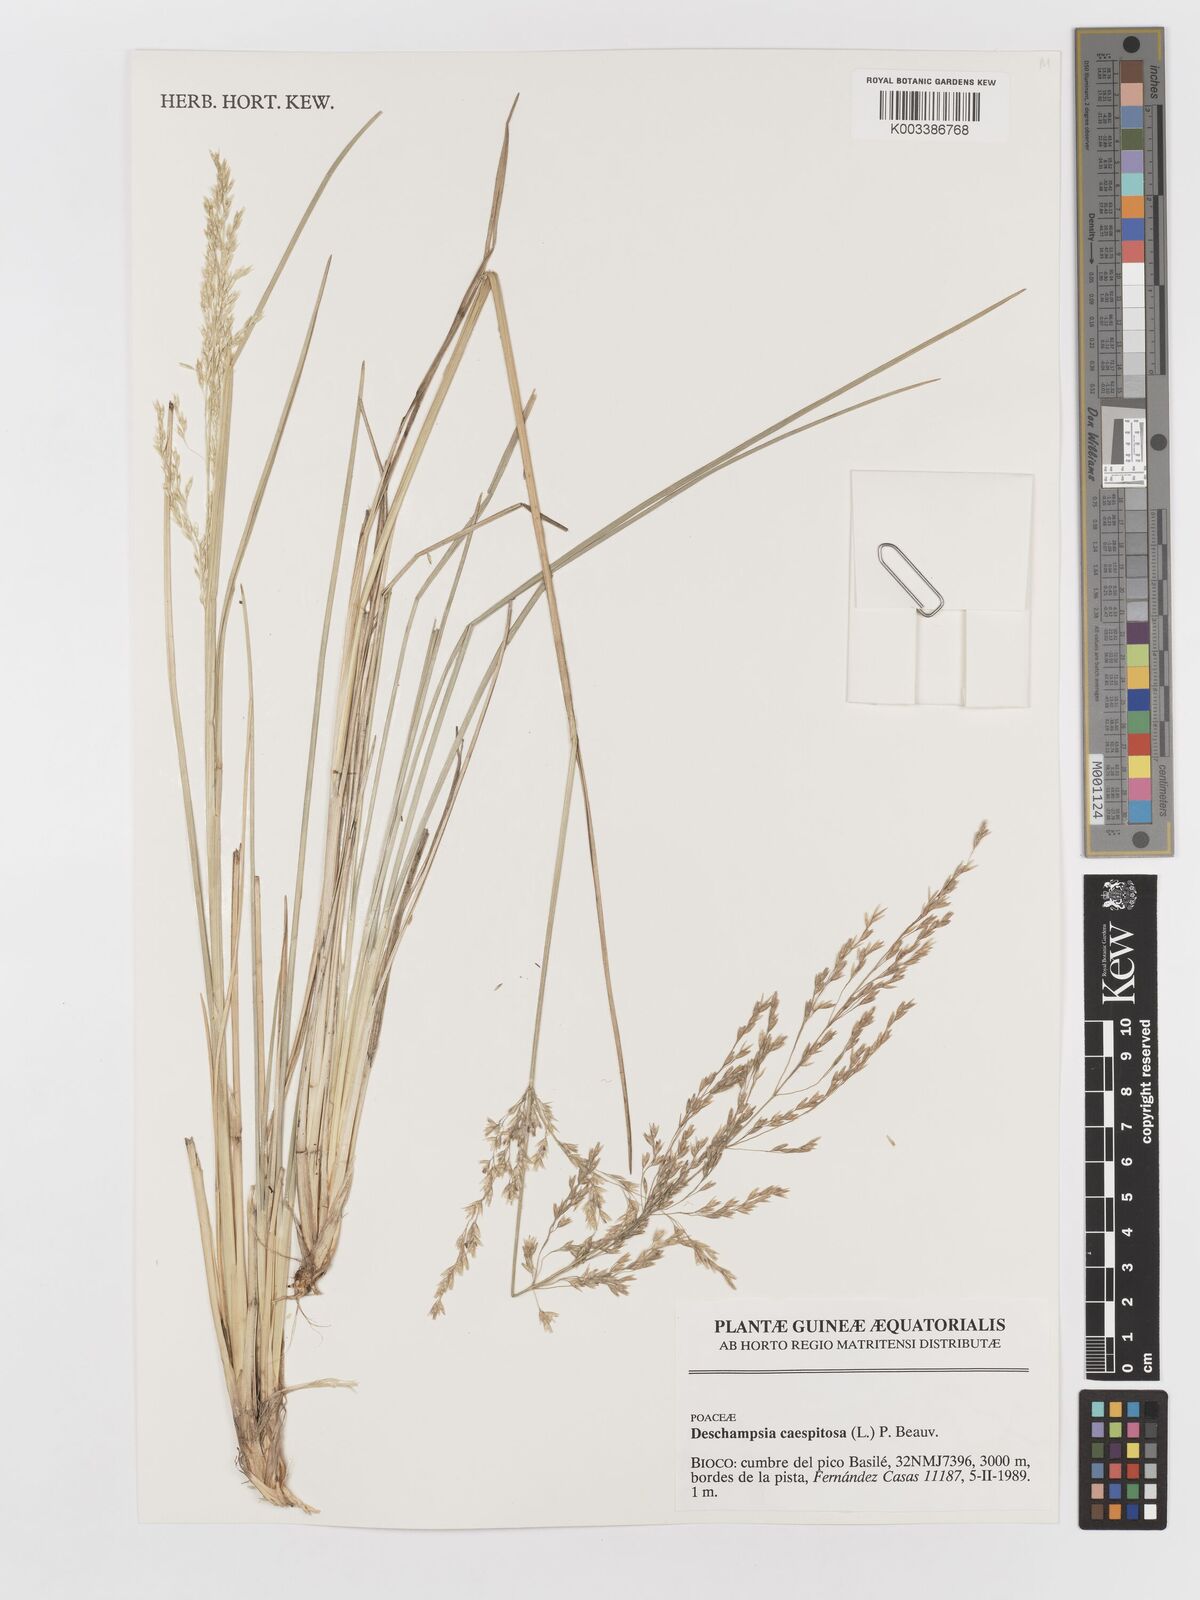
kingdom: Plantae
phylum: Tracheophyta
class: Liliopsida
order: Poales
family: Poaceae
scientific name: Poaceae
